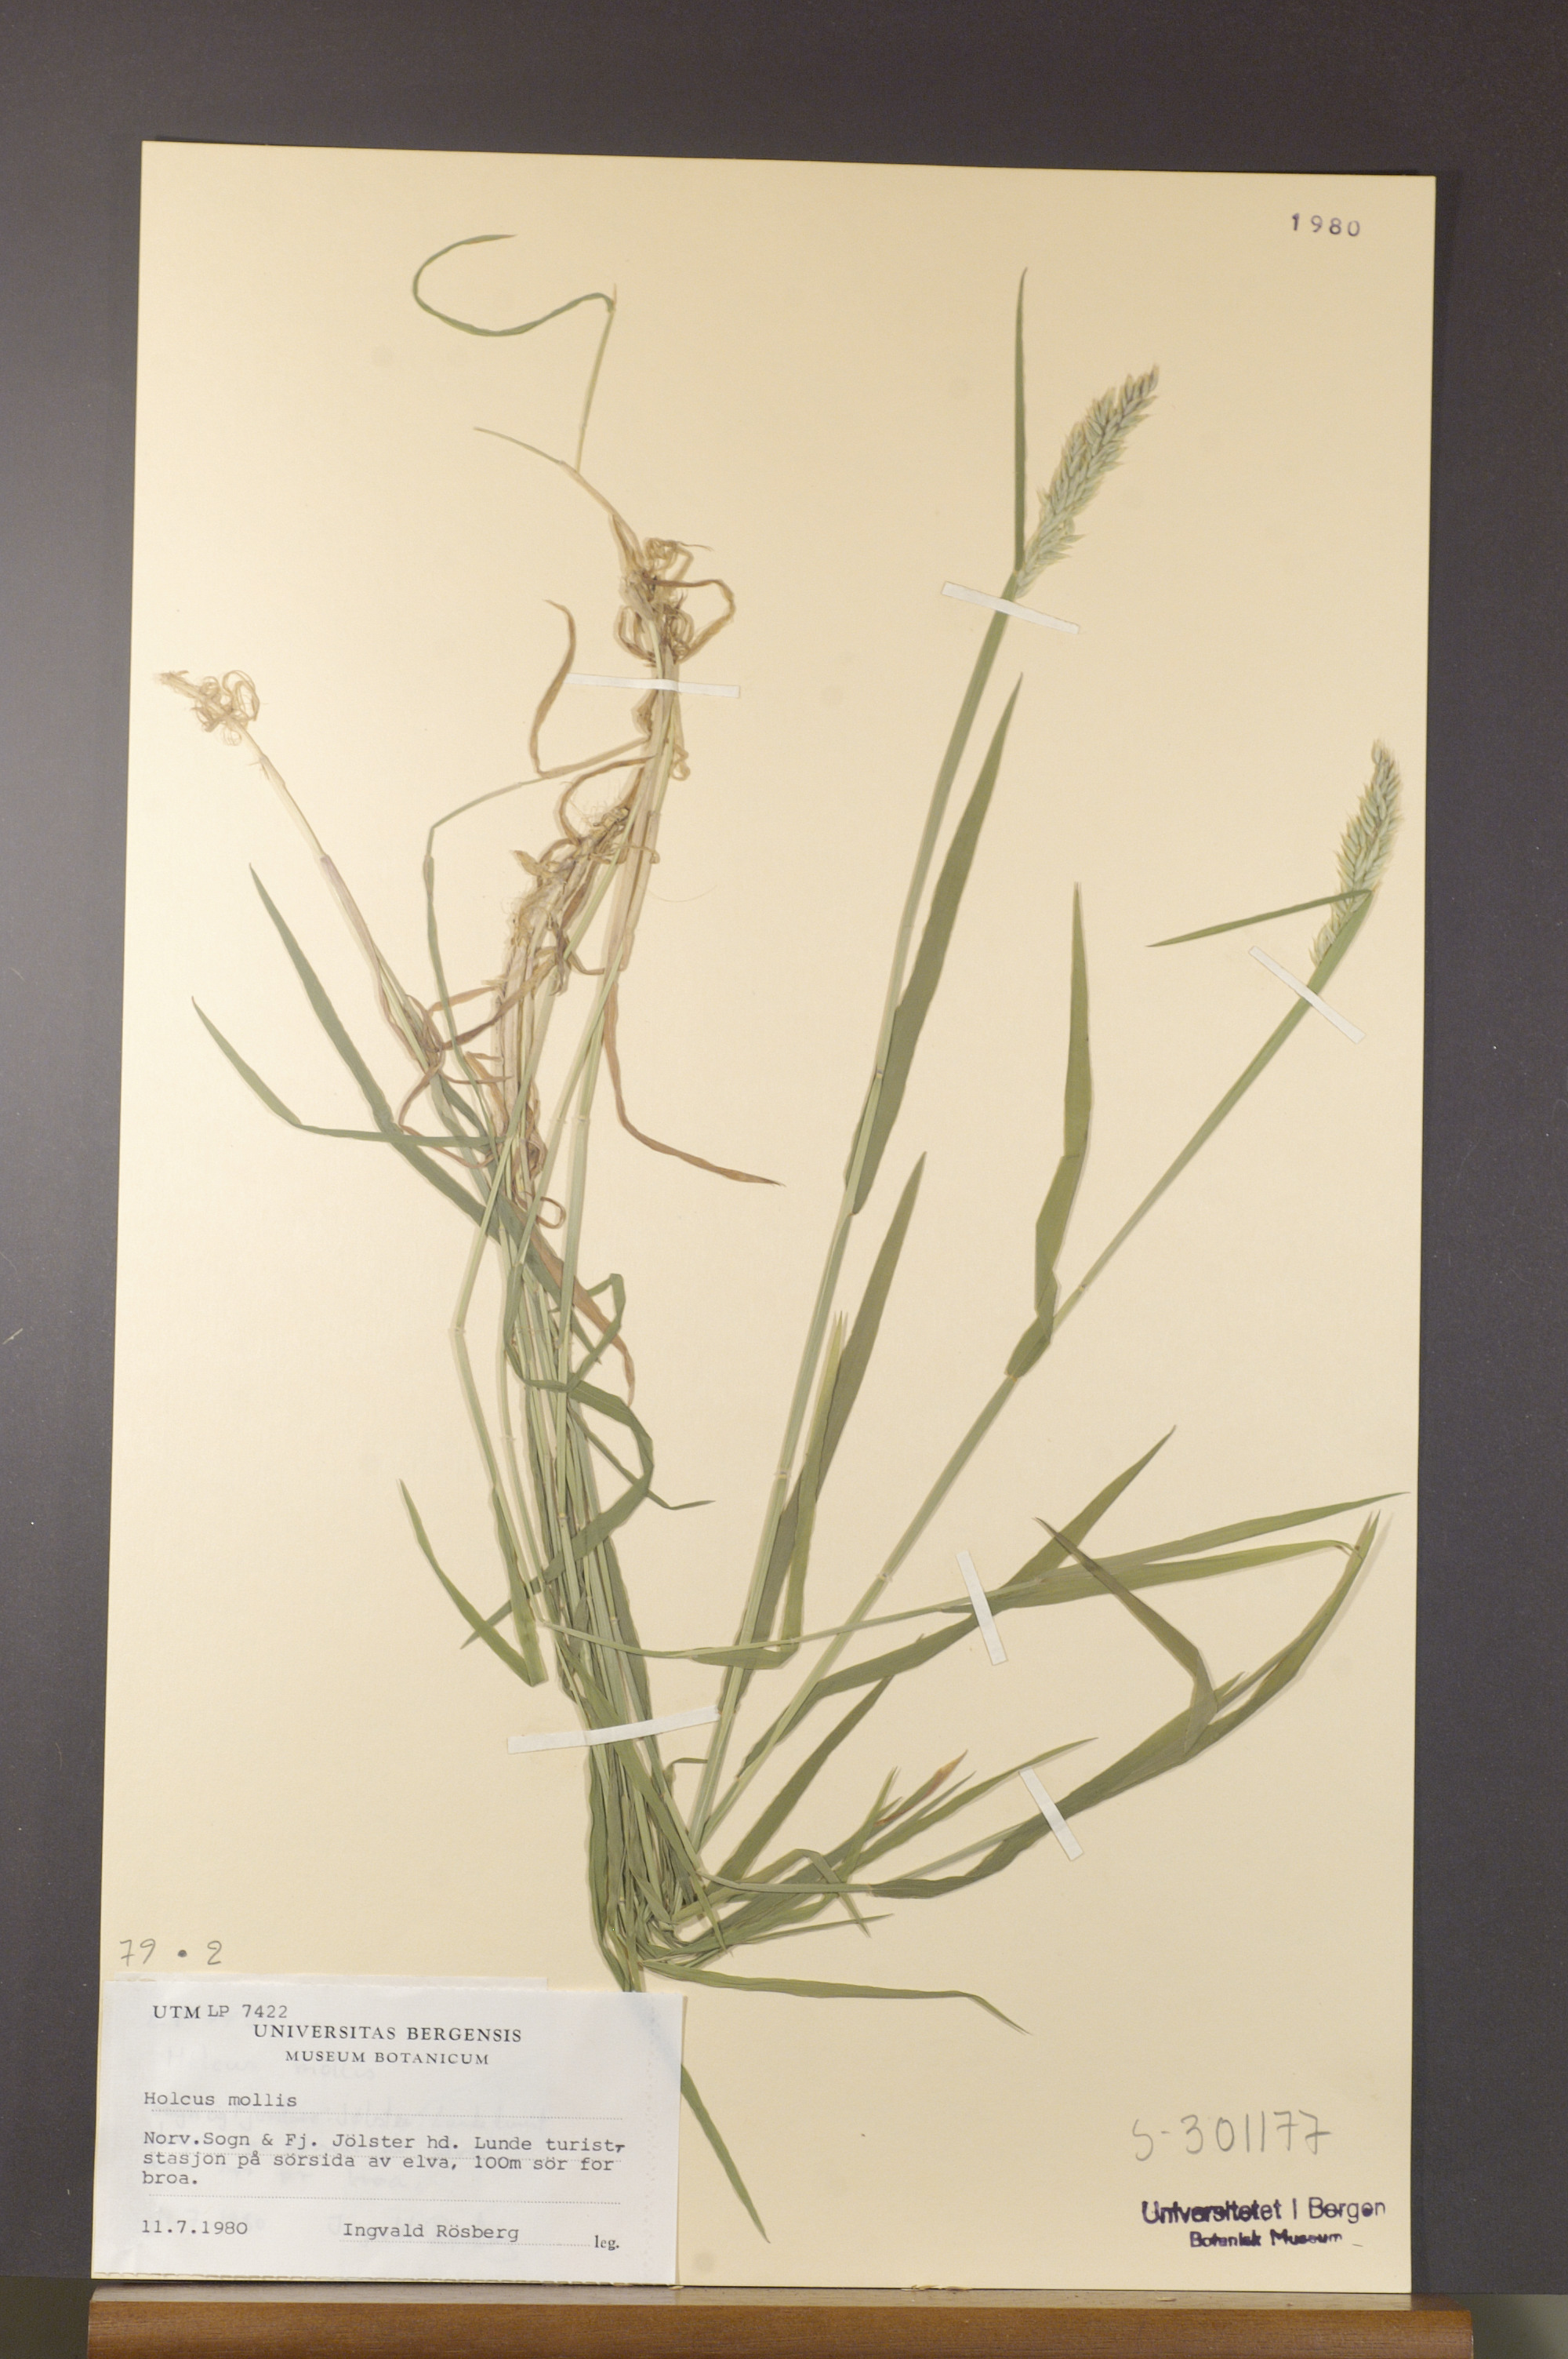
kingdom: Plantae
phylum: Tracheophyta
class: Liliopsida
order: Poales
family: Poaceae
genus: Holcus
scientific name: Holcus mollis
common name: Creeping velvetgrass
